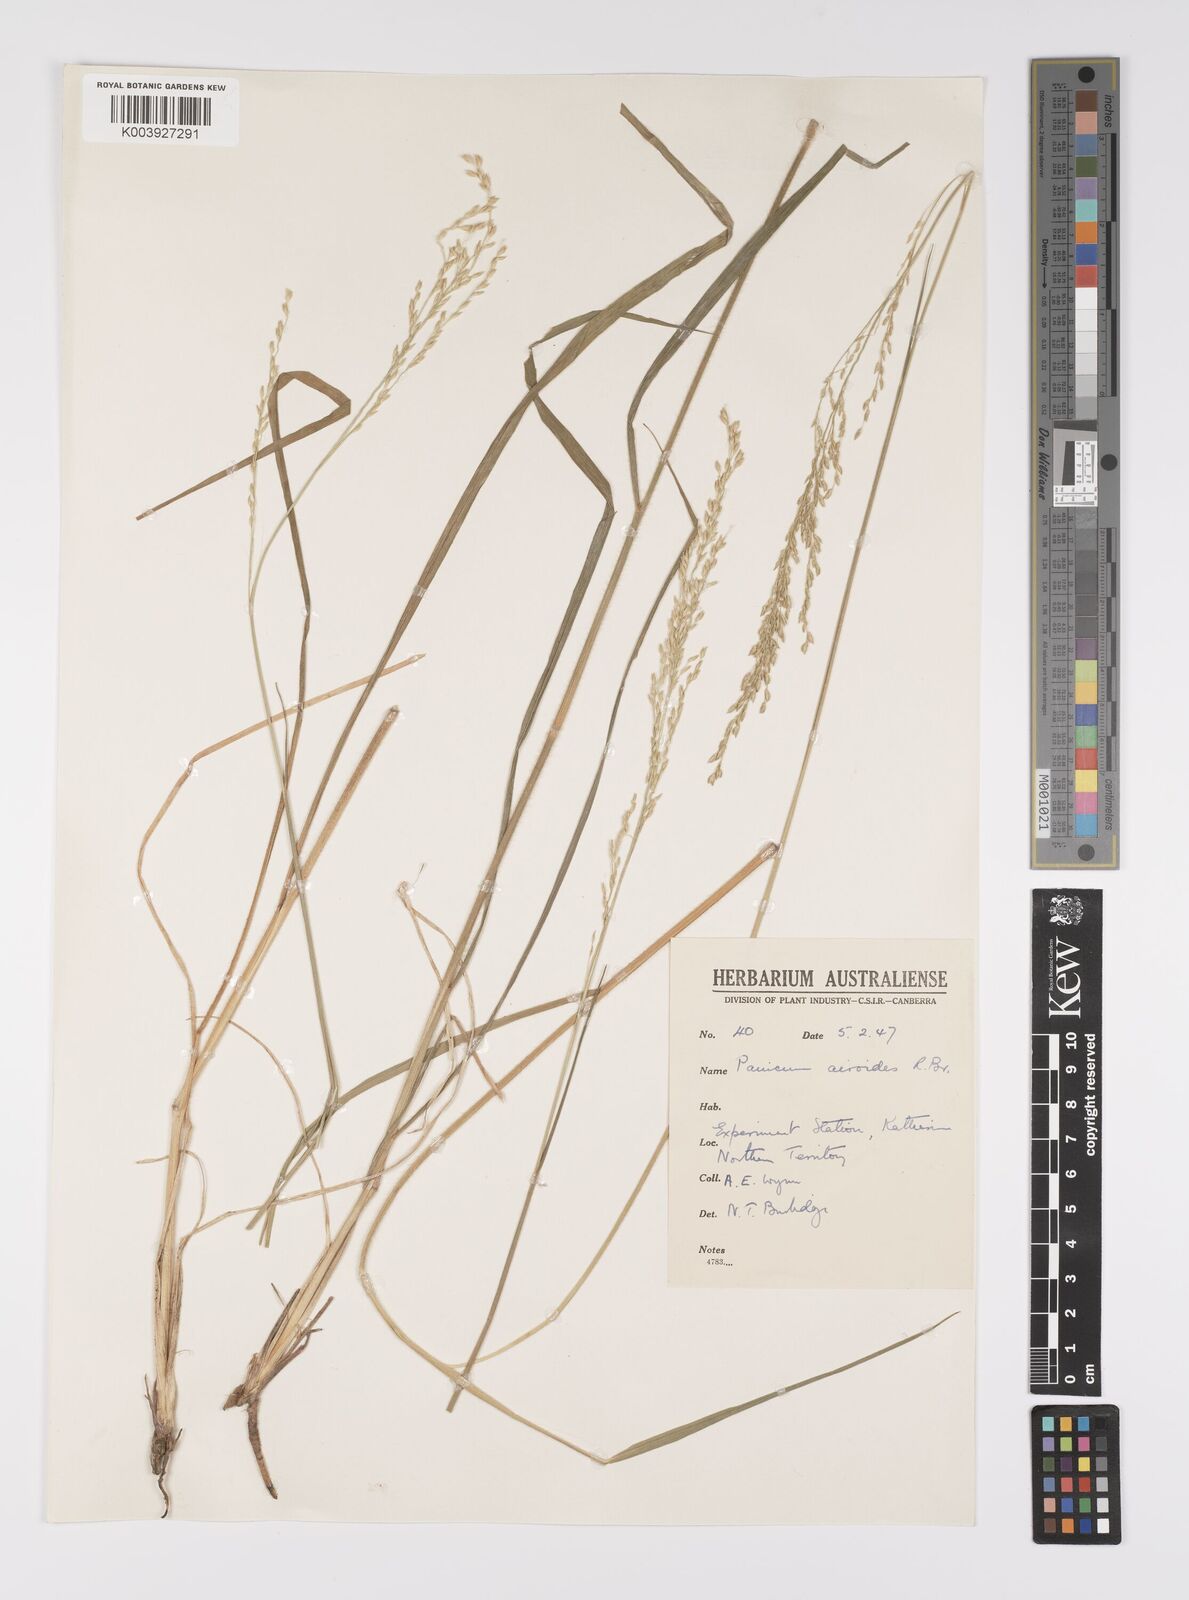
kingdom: Plantae
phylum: Tracheophyta
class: Liliopsida
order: Poales
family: Poaceae
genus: Whiteochloa
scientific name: Whiteochloa airoides
